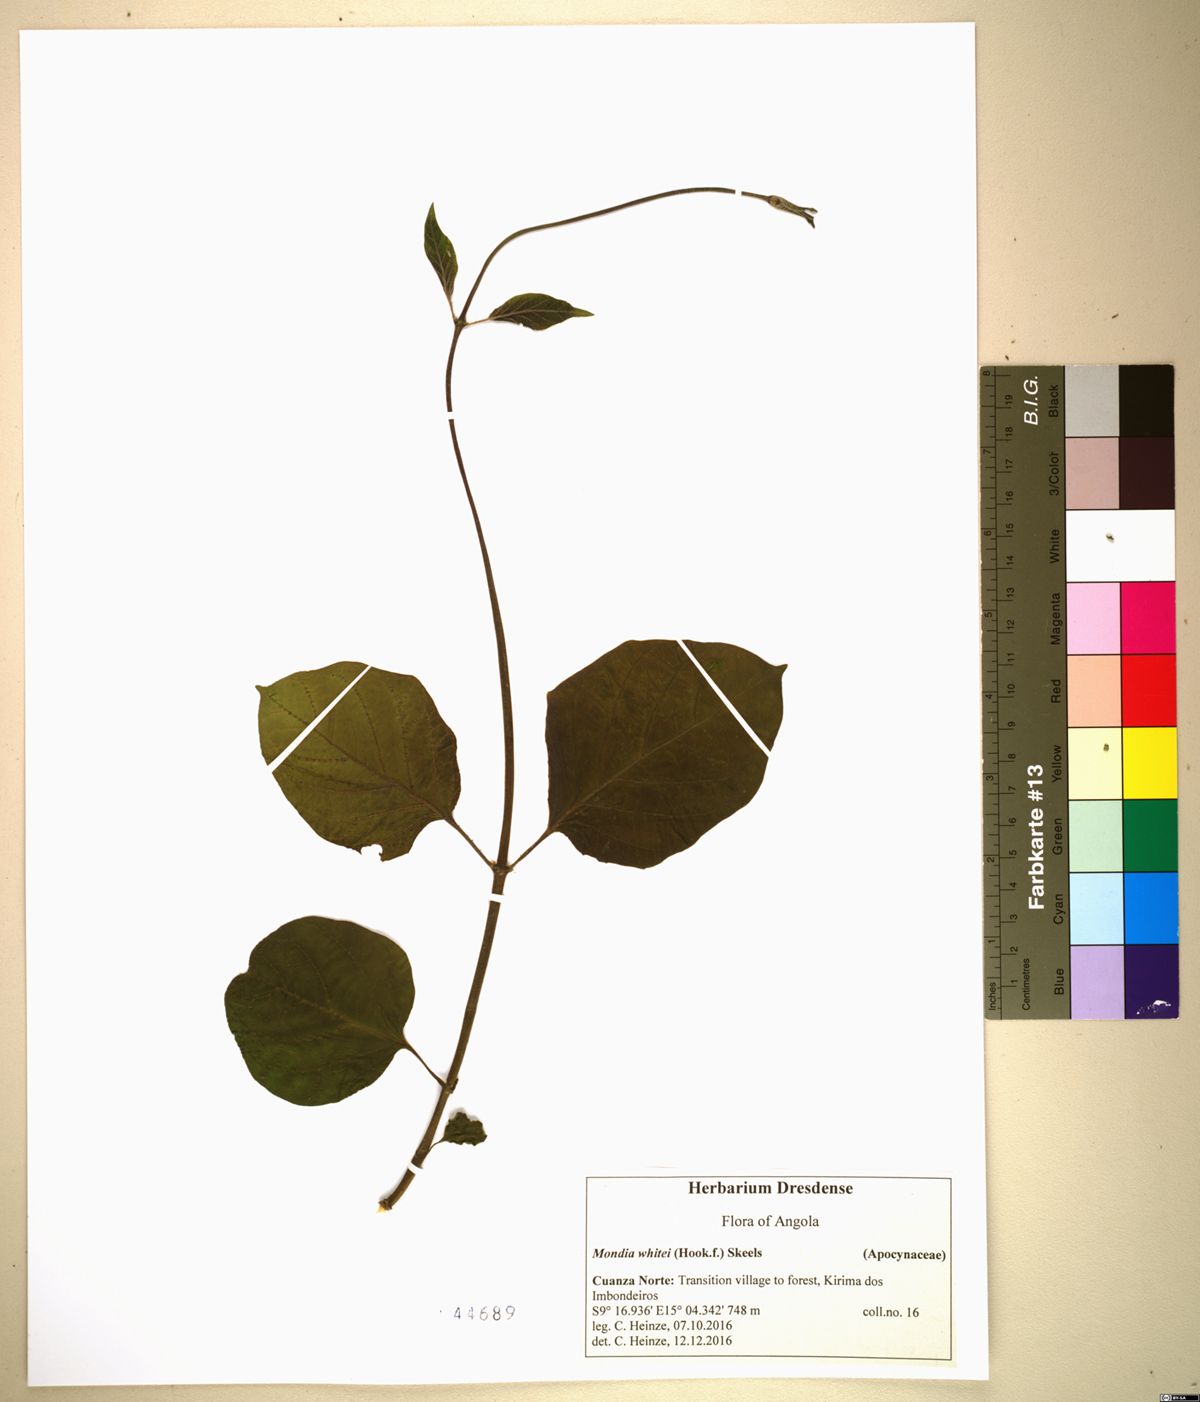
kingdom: Plantae
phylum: Tracheophyta
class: Magnoliopsida
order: Gentianales
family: Apocynaceae
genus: Mondia
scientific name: Mondia whitei
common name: Mondia
